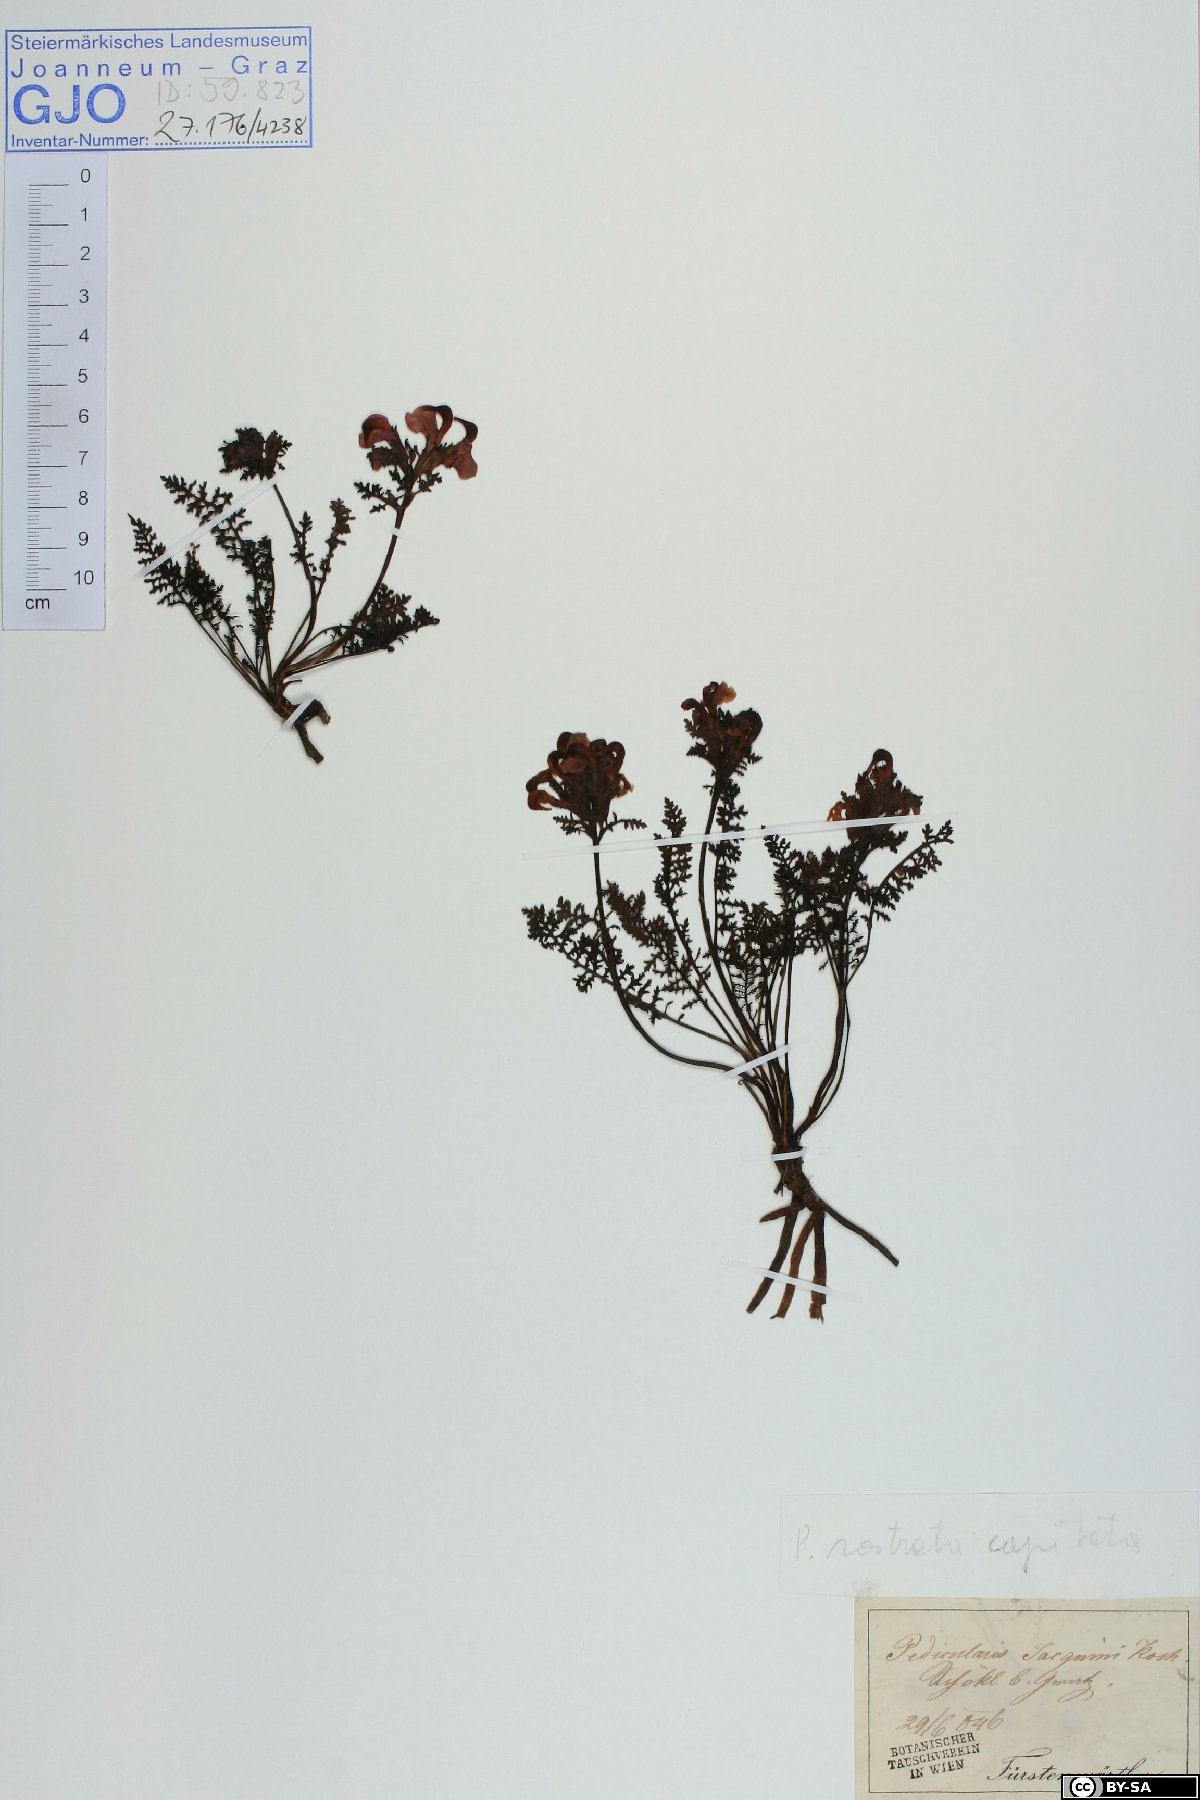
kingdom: Plantae
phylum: Tracheophyta
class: Magnoliopsida
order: Lamiales
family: Orobanchaceae
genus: Pedicularis
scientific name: Pedicularis rostratocapitata
